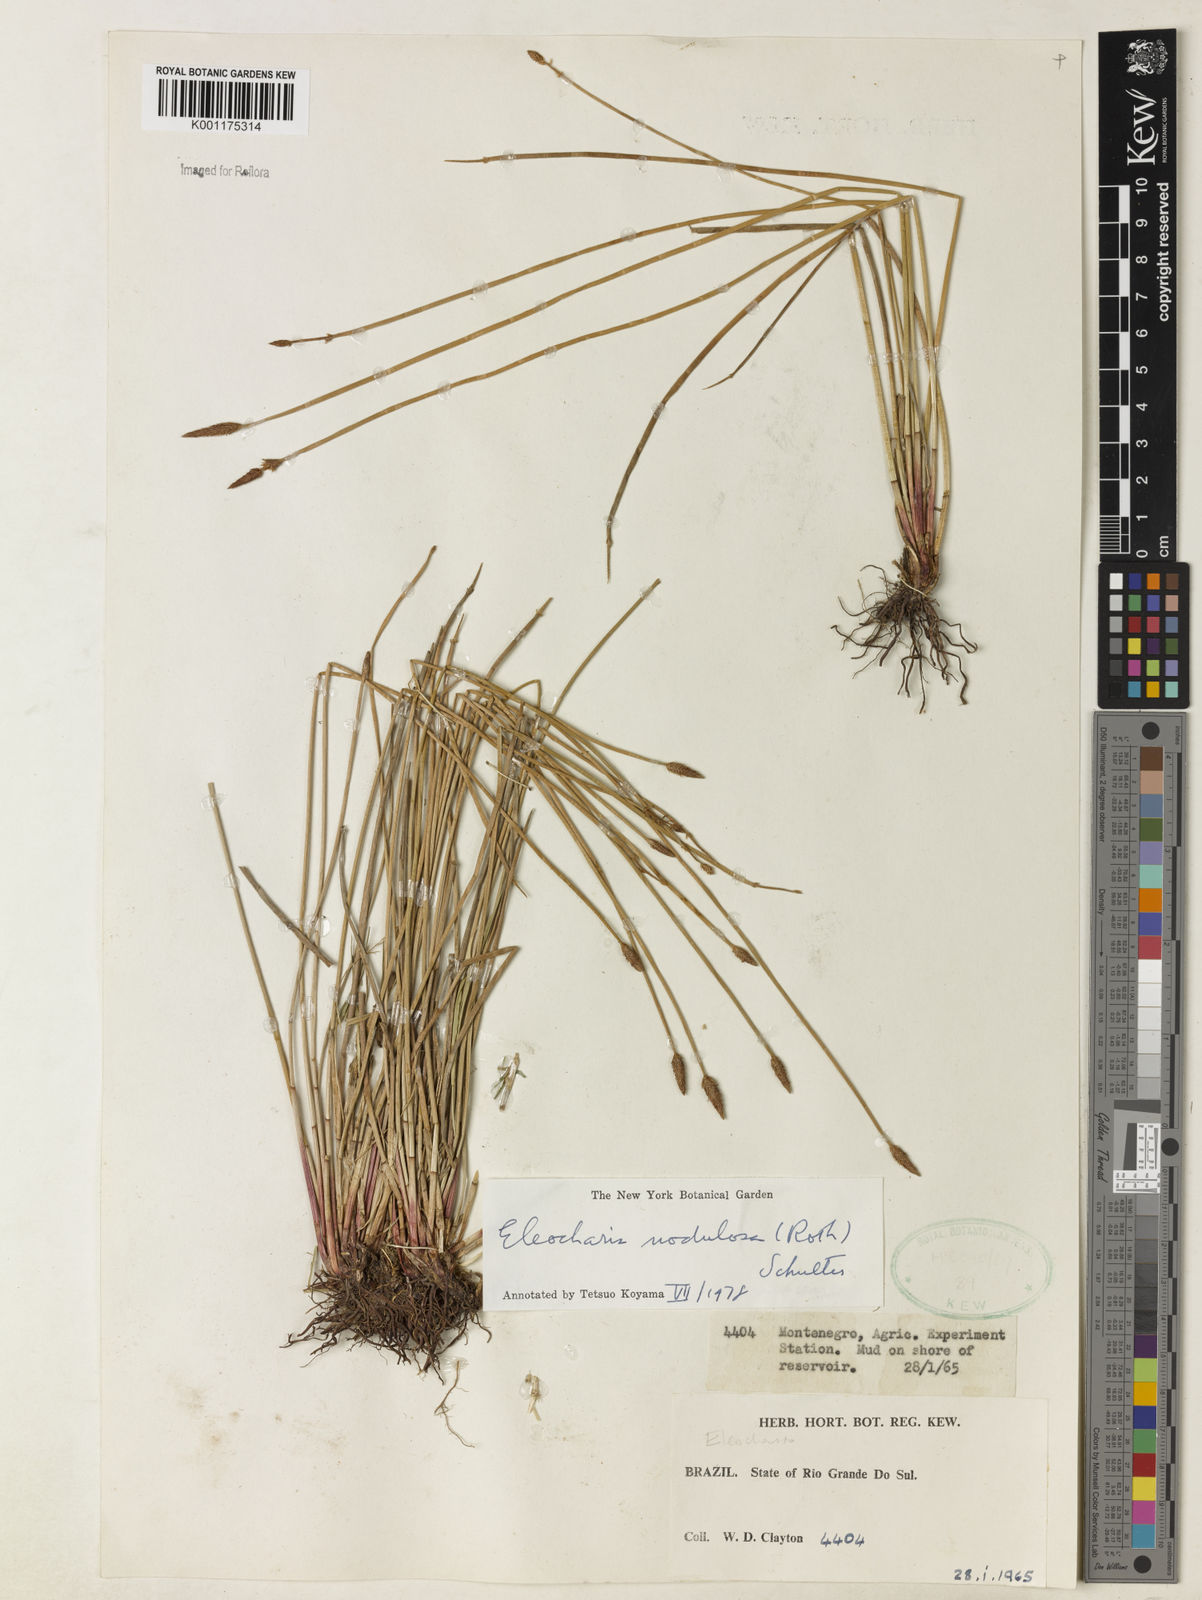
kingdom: Plantae
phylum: Tracheophyta
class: Liliopsida
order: Poales
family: Cyperaceae
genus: Eleocharis
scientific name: Eleocharis montana
